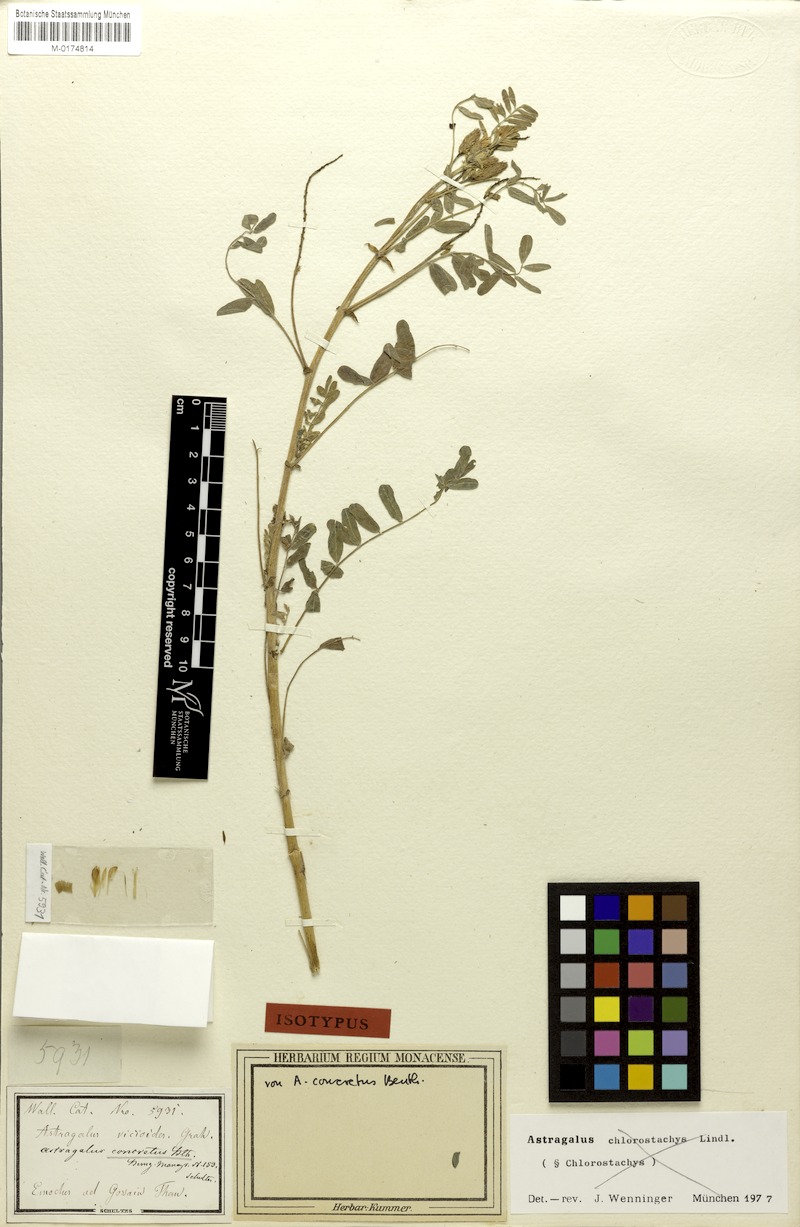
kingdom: Plantae
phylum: Tracheophyta
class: Magnoliopsida
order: Fabales
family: Fabaceae
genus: Astragalus
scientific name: Astragalus concretus
